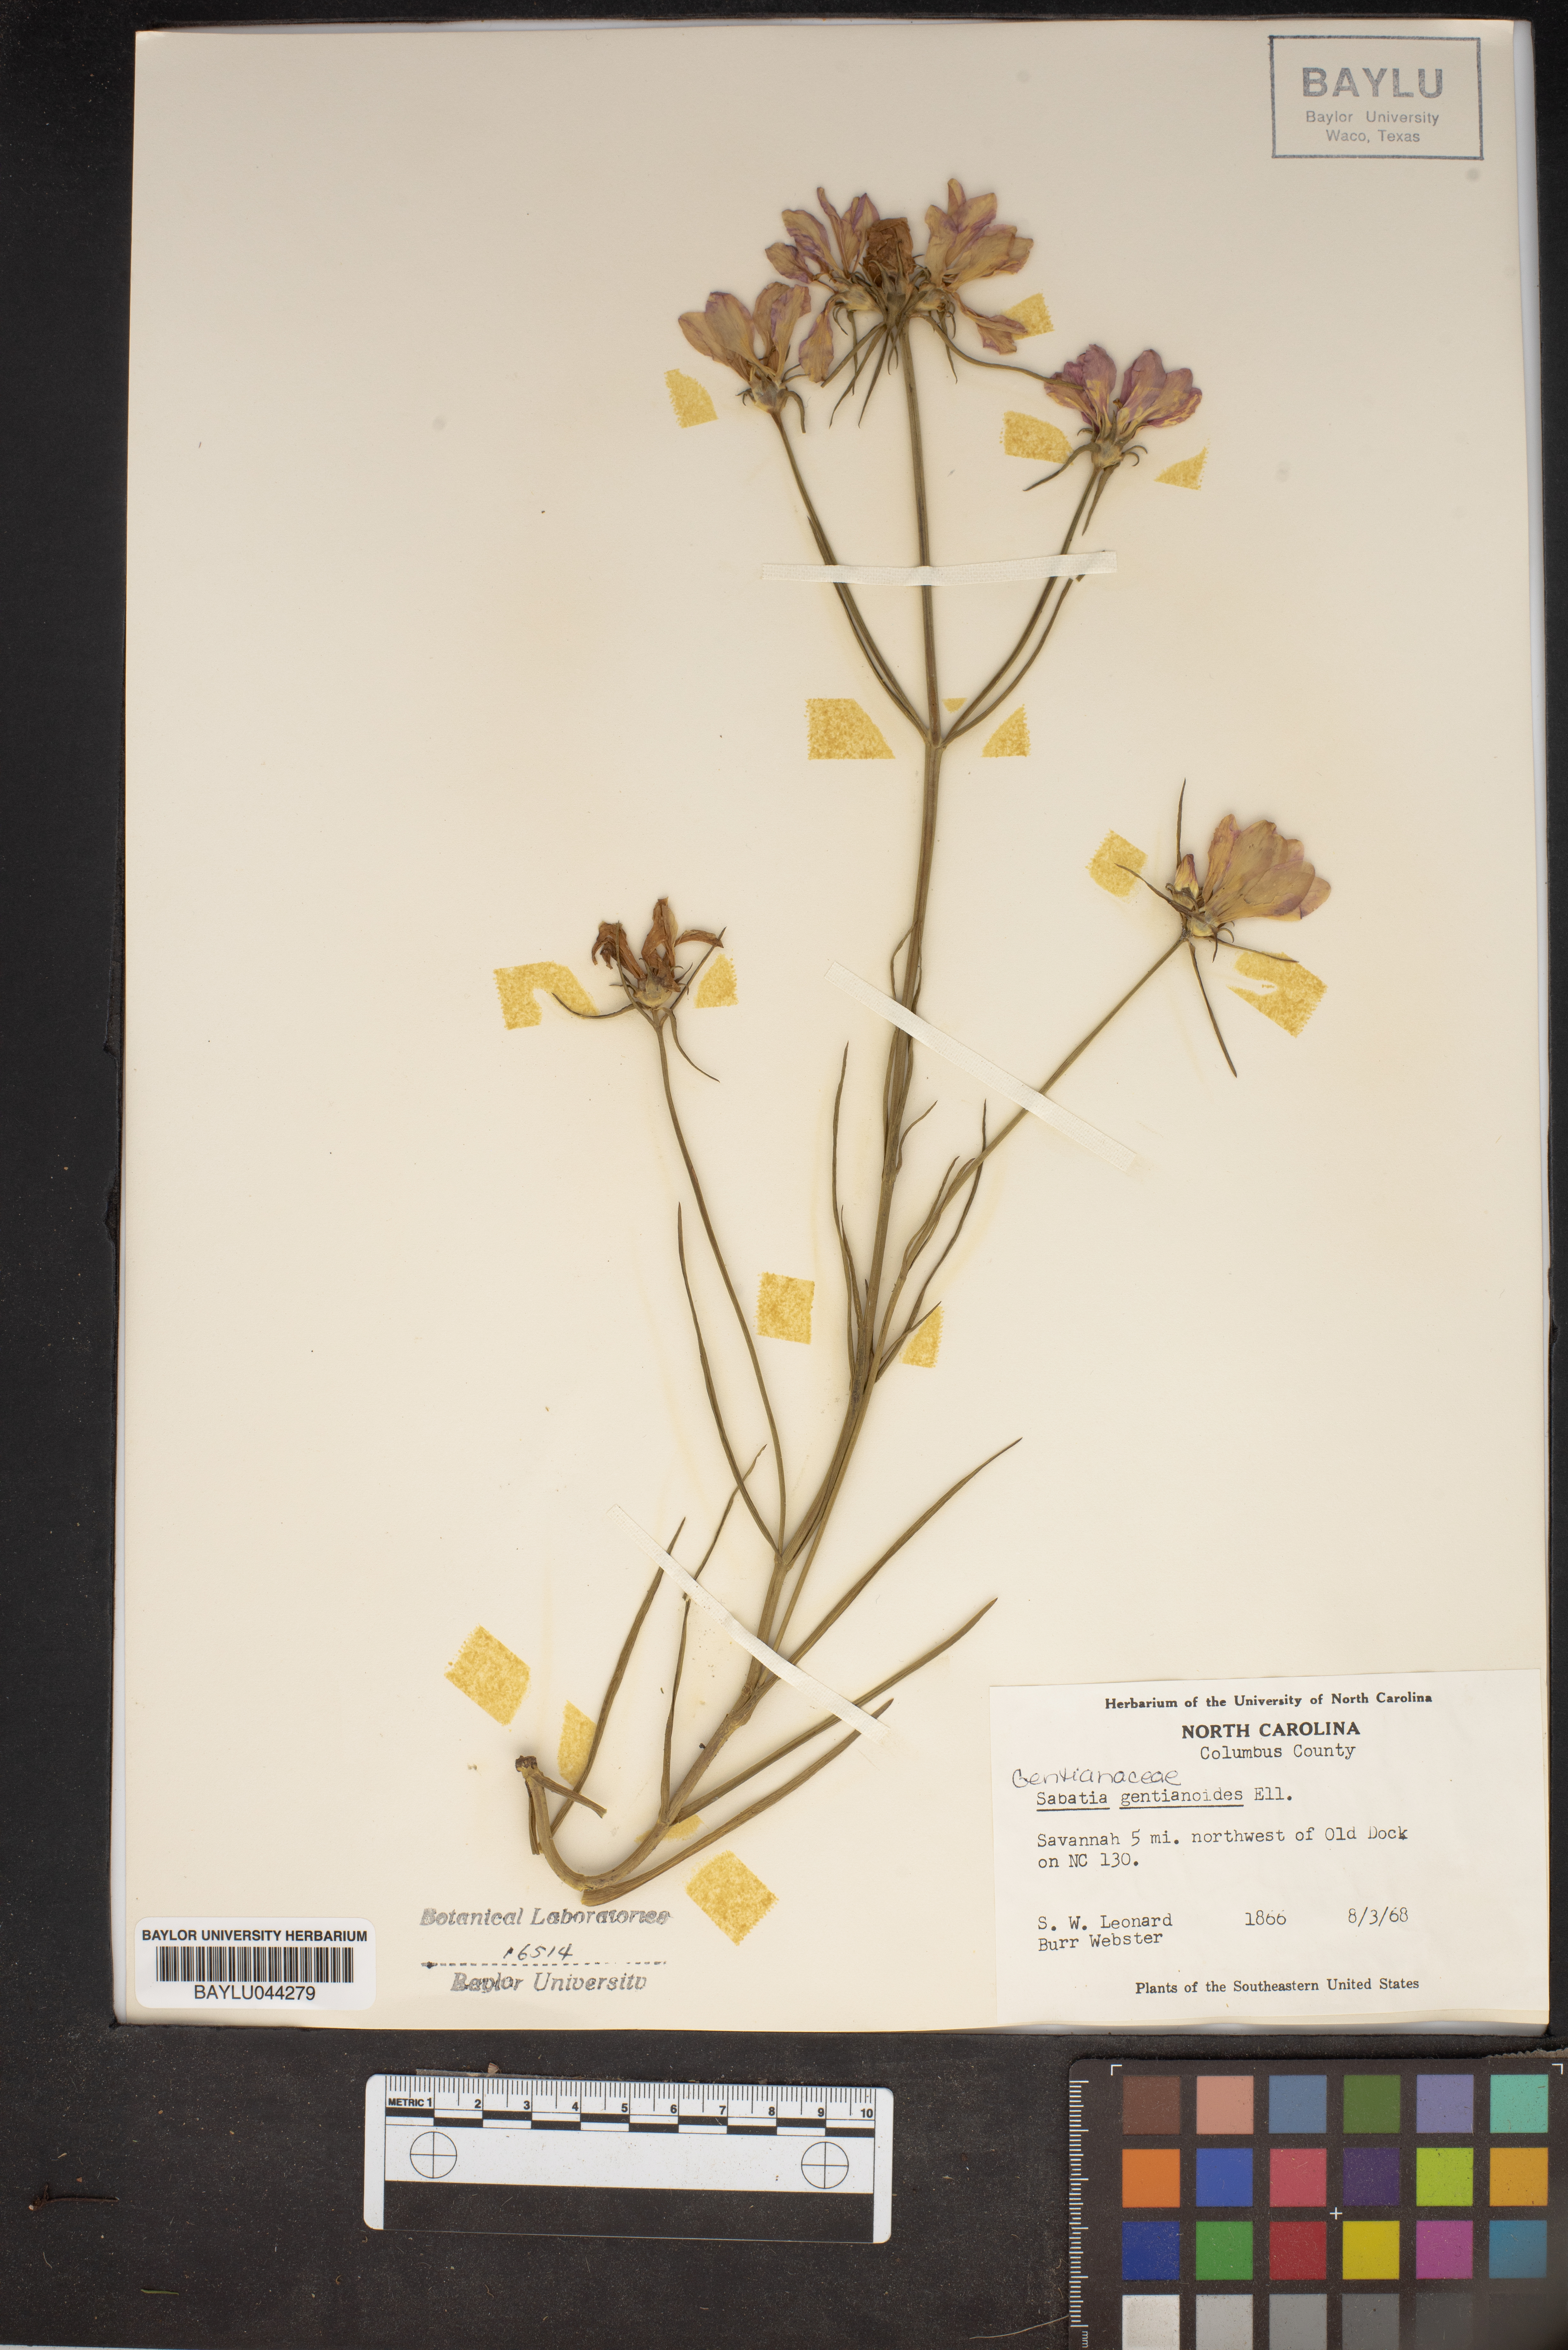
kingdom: Plantae
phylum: Tracheophyta
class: Magnoliopsida
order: Gentianales
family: Gentianaceae
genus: Sabatia
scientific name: Sabatia gentianoides
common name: Pinewoods rose-gentian
